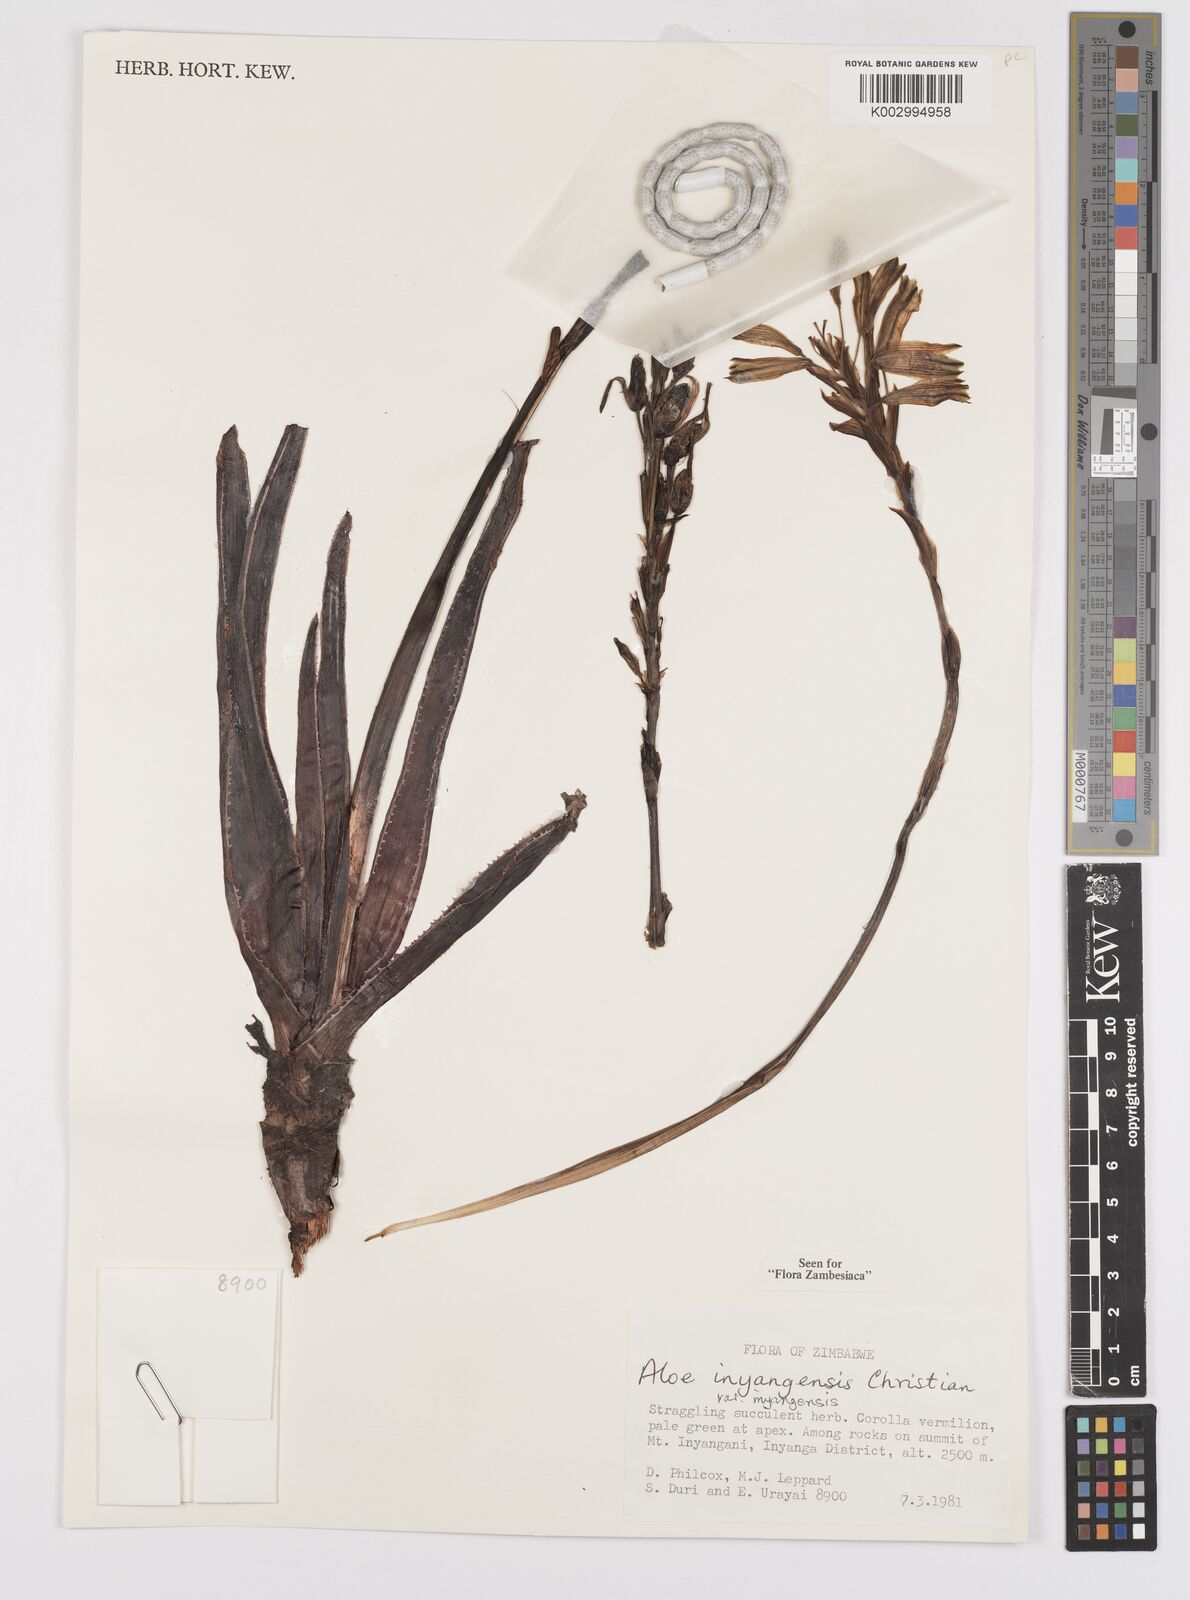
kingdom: Plantae
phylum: Tracheophyta
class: Liliopsida
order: Asparagales
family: Asphodelaceae
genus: Aloe
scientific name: Aloe inyangensis
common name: Inyanga aloe
